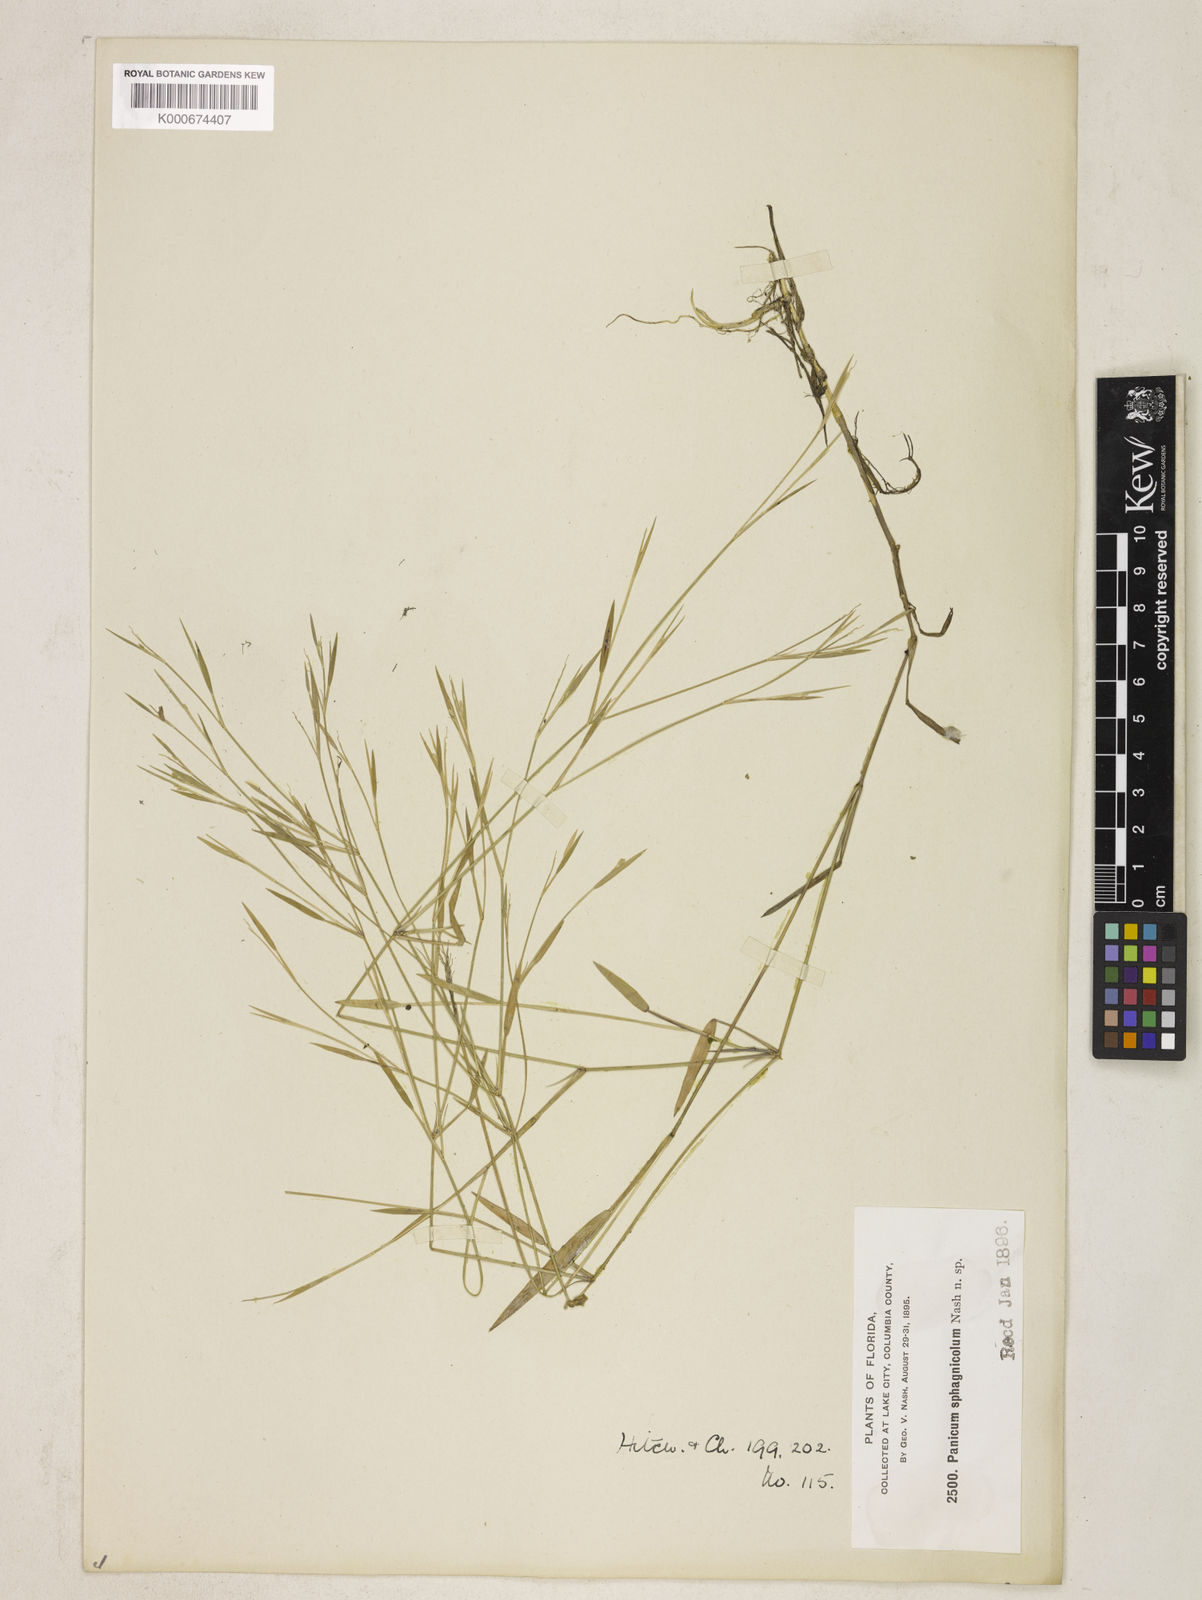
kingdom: Plantae
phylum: Tracheophyta
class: Liliopsida
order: Poales
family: Poaceae
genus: Dichanthelium
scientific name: Dichanthelium sphagnicola
